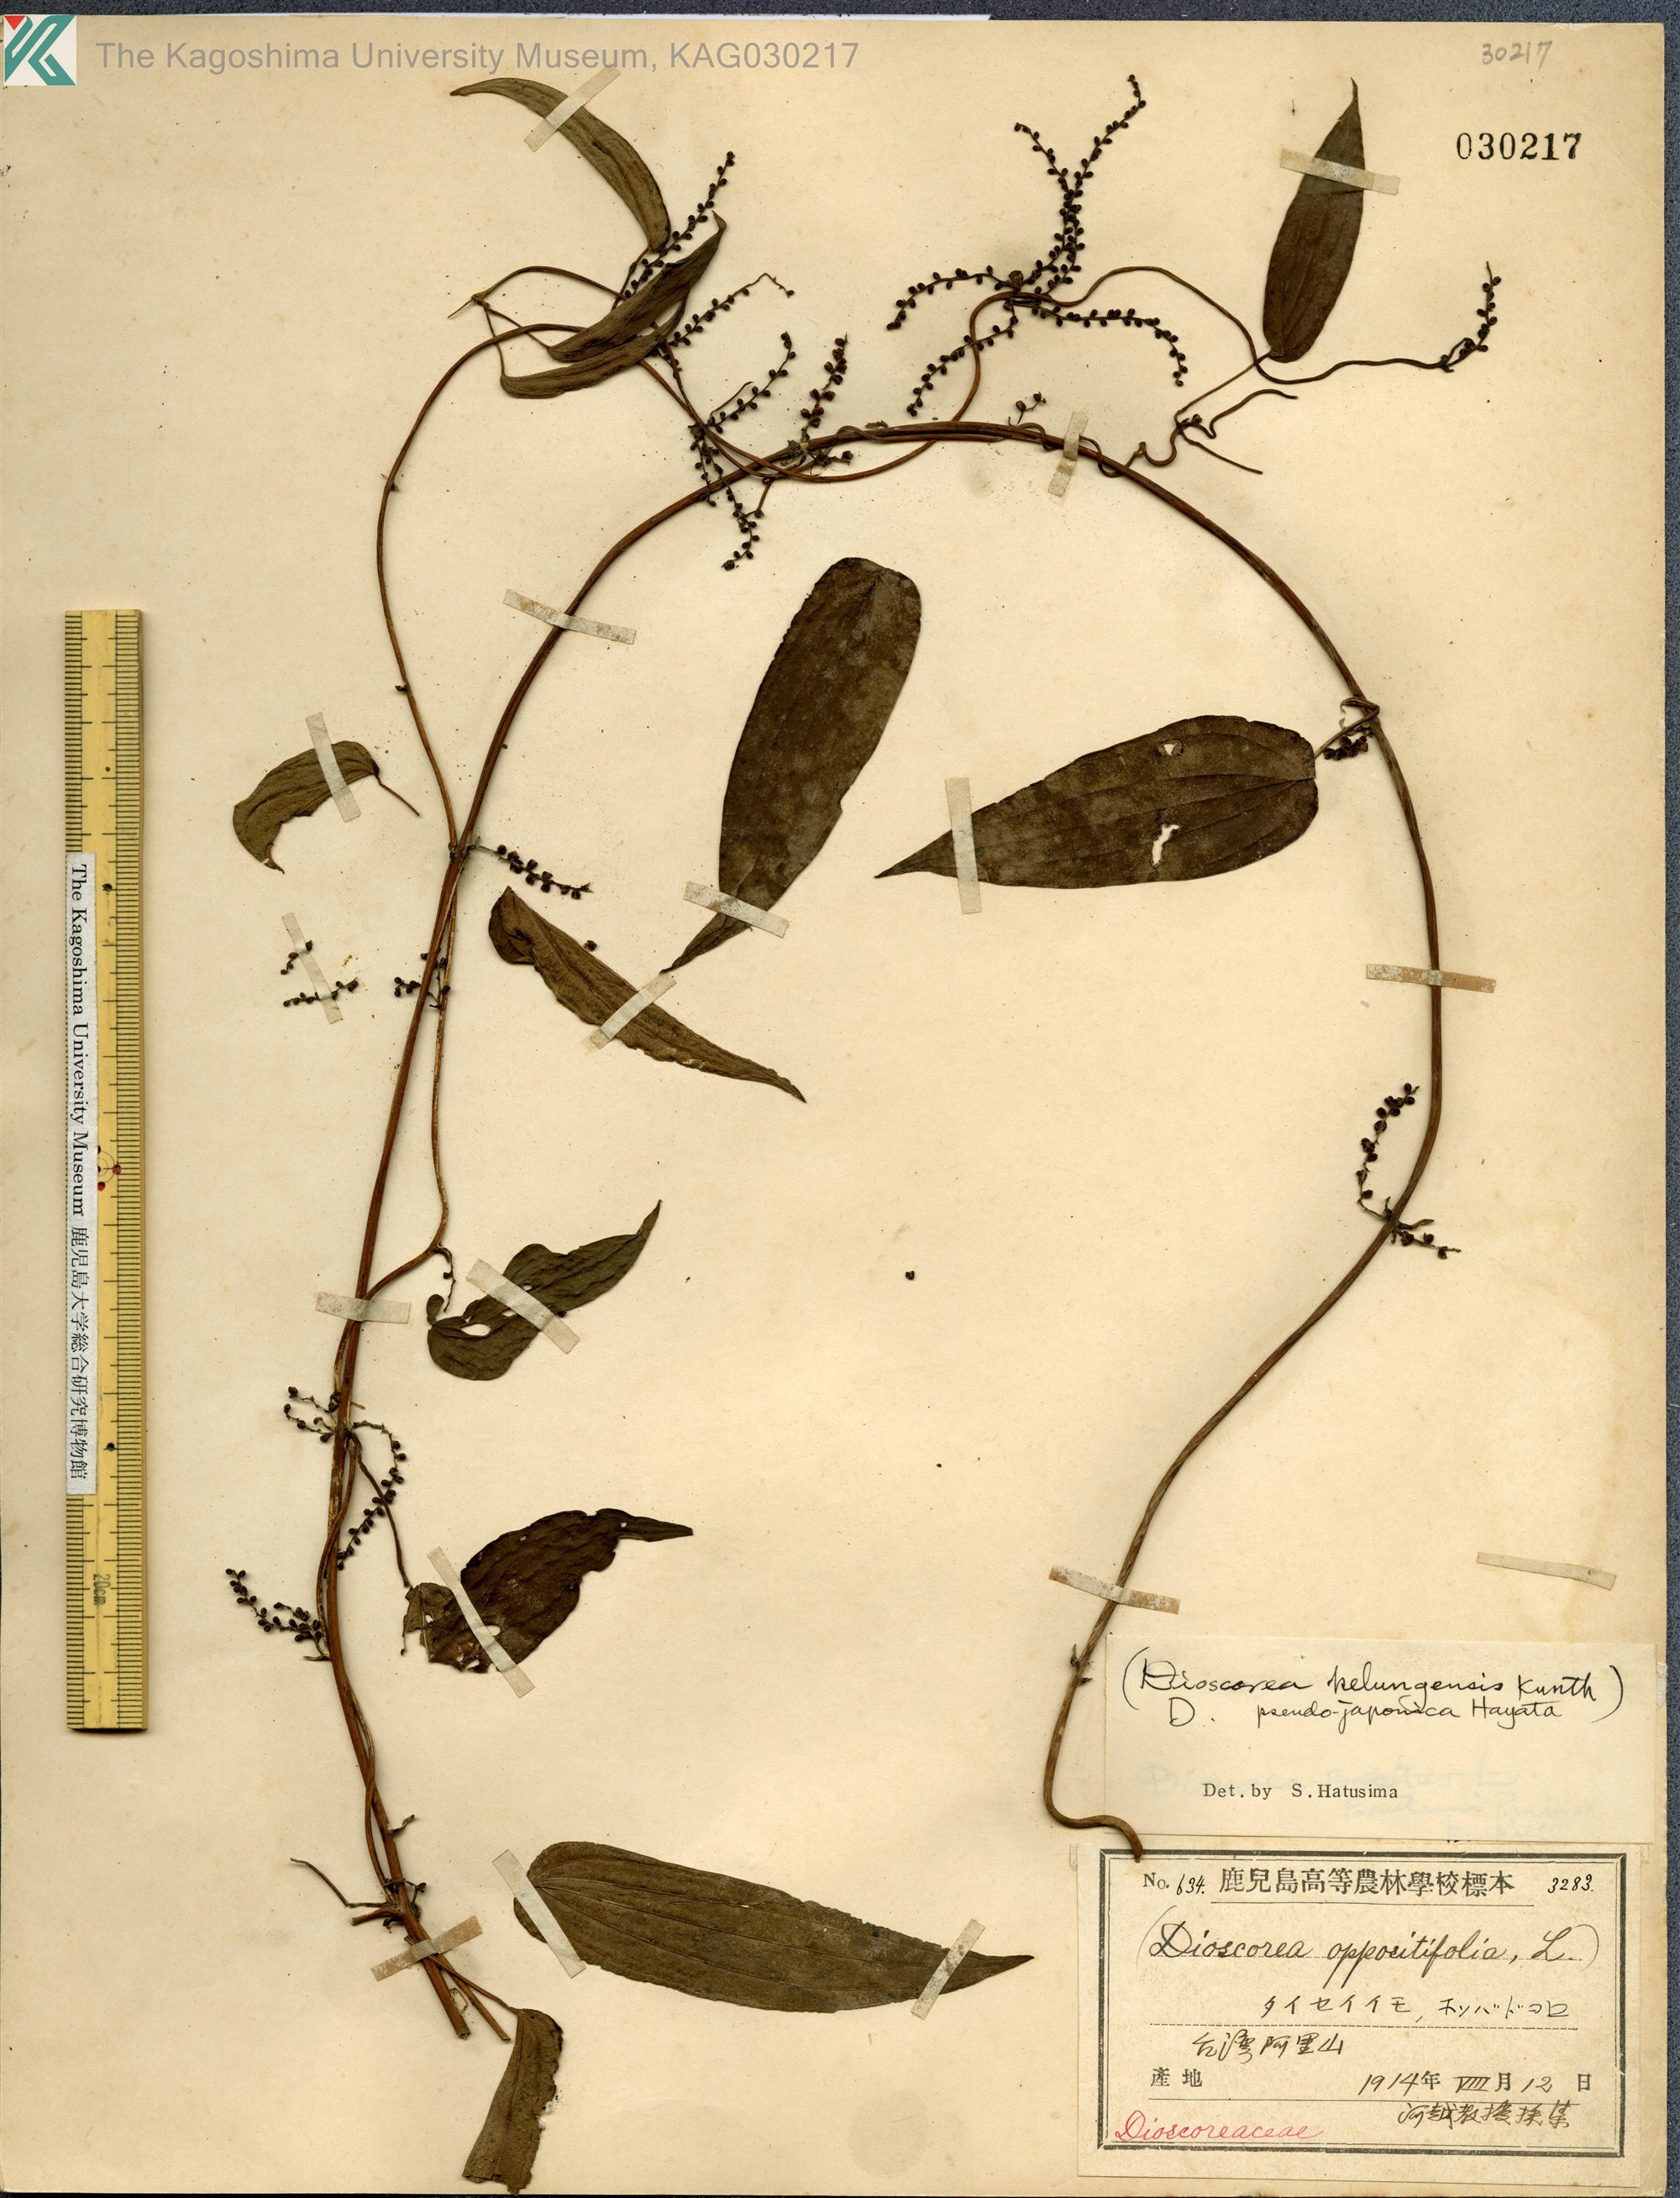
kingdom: Plantae
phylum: Tracheophyta
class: Liliopsida
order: Dioscoreales
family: Dioscoreaceae
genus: Dioscorea
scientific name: Dioscorea oppositifolia
